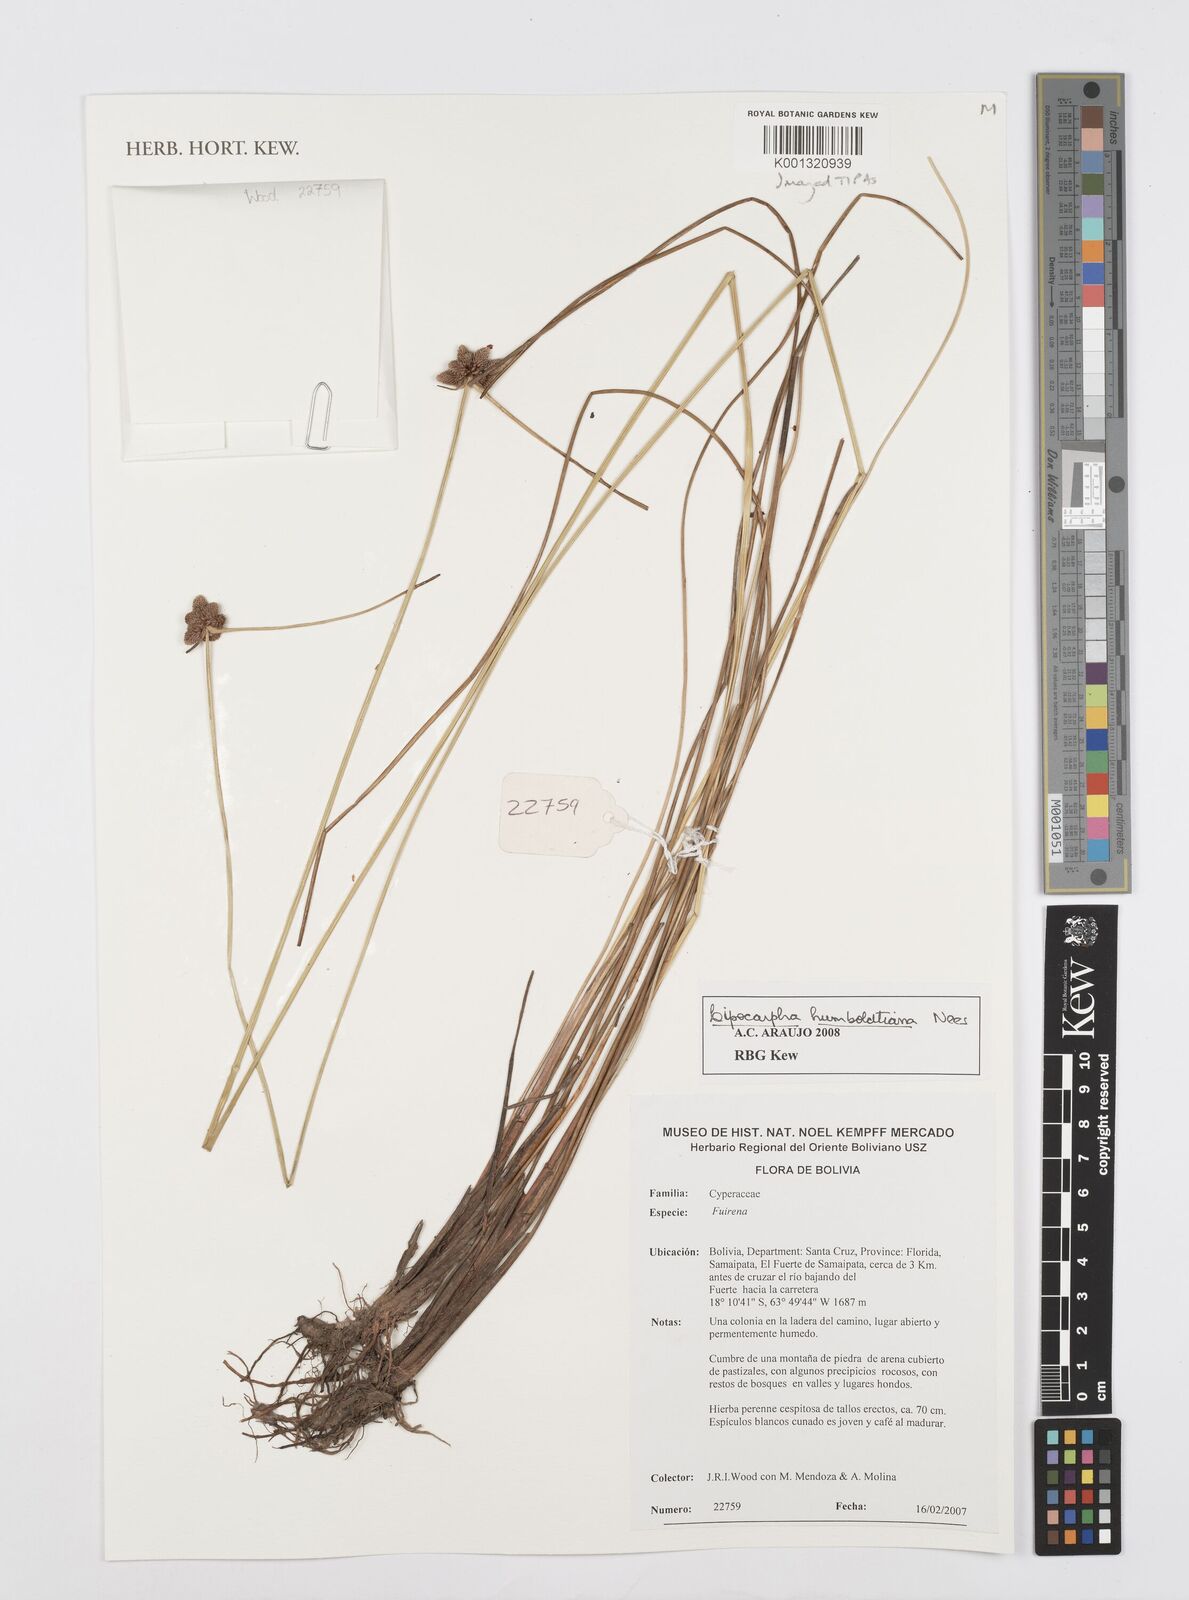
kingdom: Plantae
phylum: Tracheophyta
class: Liliopsida
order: Poales
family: Cyperaceae
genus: Cyperus
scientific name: Cyperus lanceolatus
